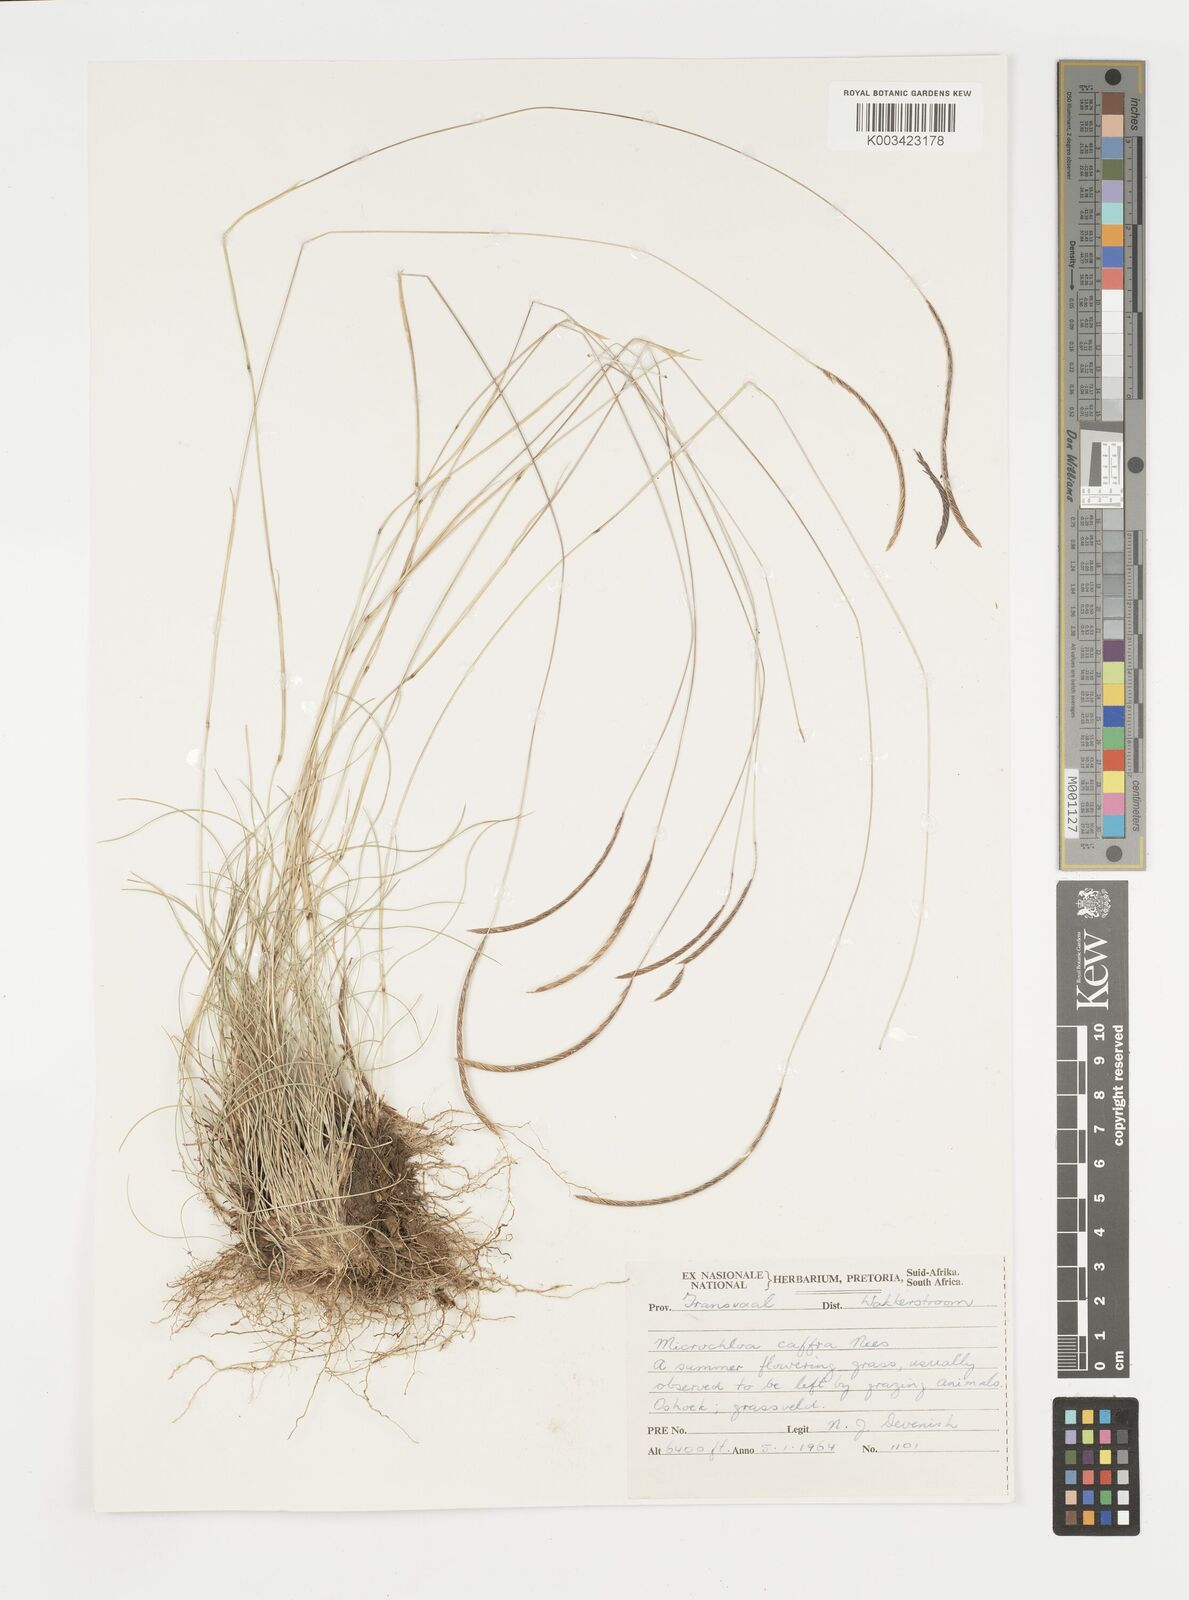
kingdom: Plantae
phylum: Tracheophyta
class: Liliopsida
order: Poales
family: Poaceae
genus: Microchloa
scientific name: Microchloa caffra
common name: Pincushion grass
